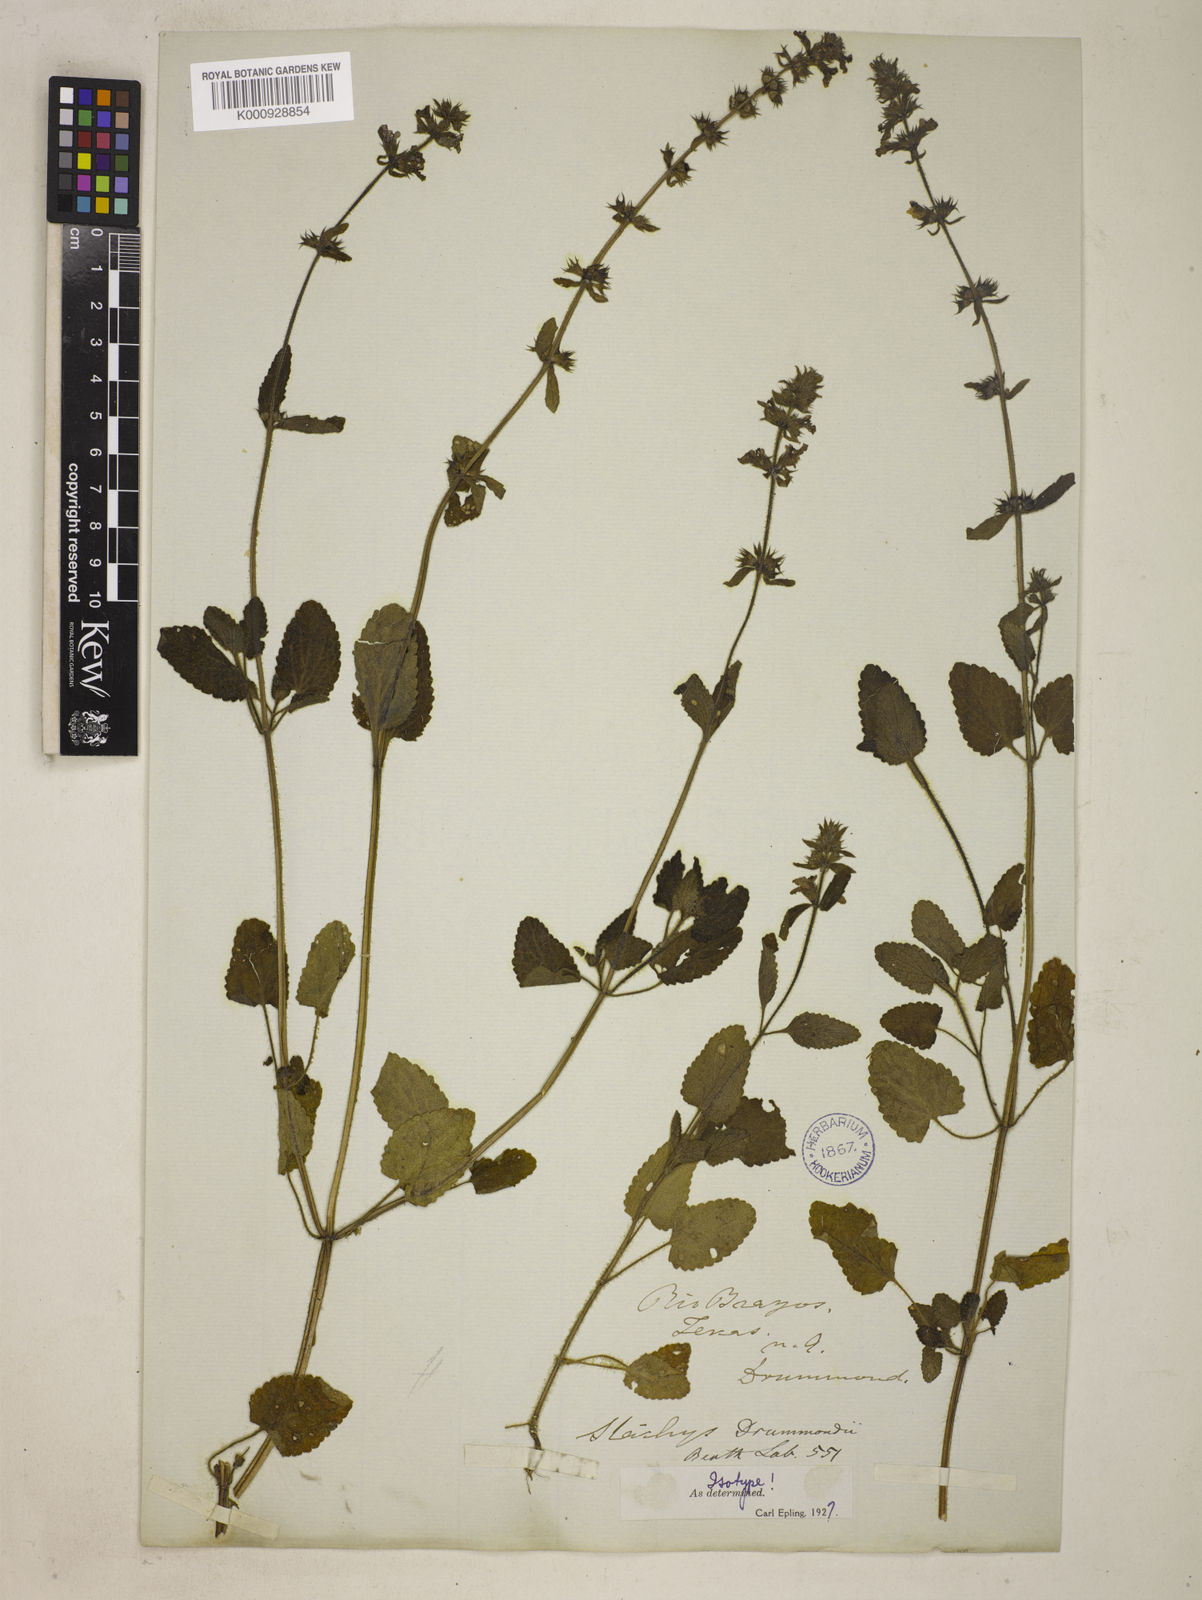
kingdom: Plantae
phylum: Tracheophyta
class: Magnoliopsida
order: Lamiales
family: Lamiaceae
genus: Stachys
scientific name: Stachys drummondii
